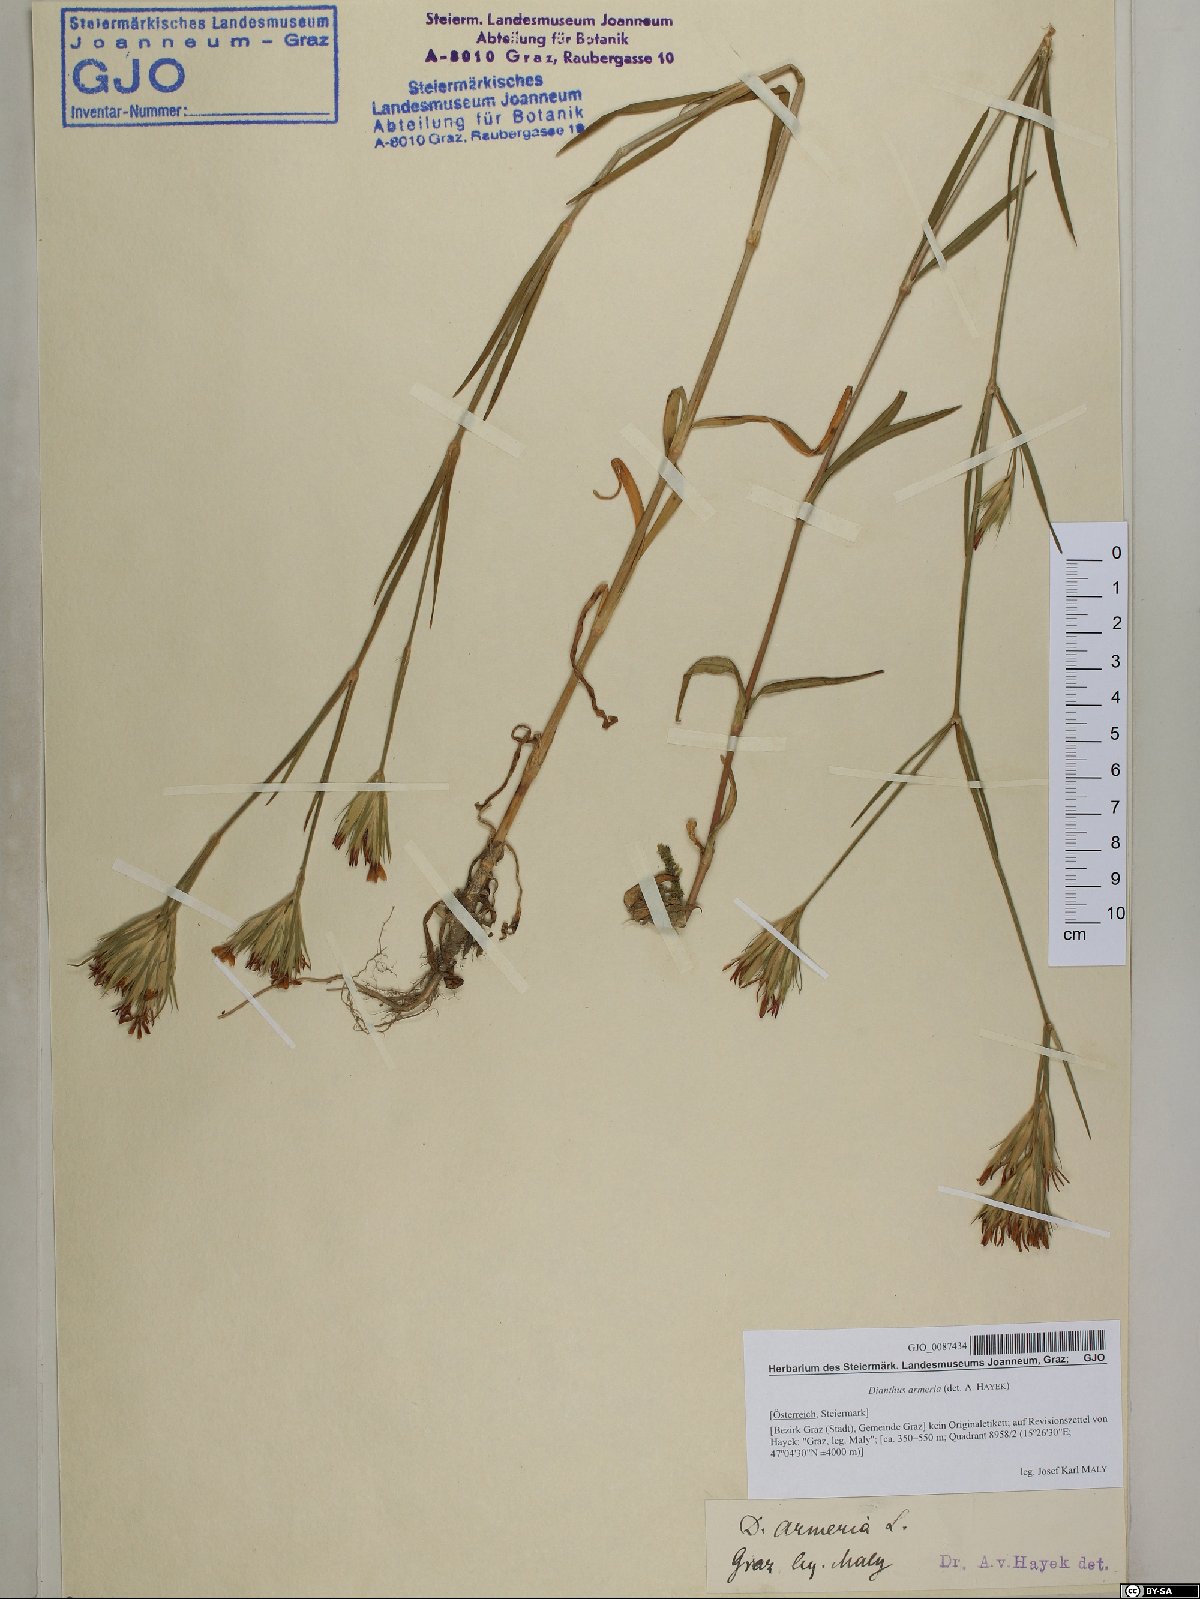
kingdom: Plantae
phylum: Tracheophyta
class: Magnoliopsida
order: Caryophyllales
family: Caryophyllaceae
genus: Dianthus
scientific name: Dianthus armeria
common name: Deptford pink
